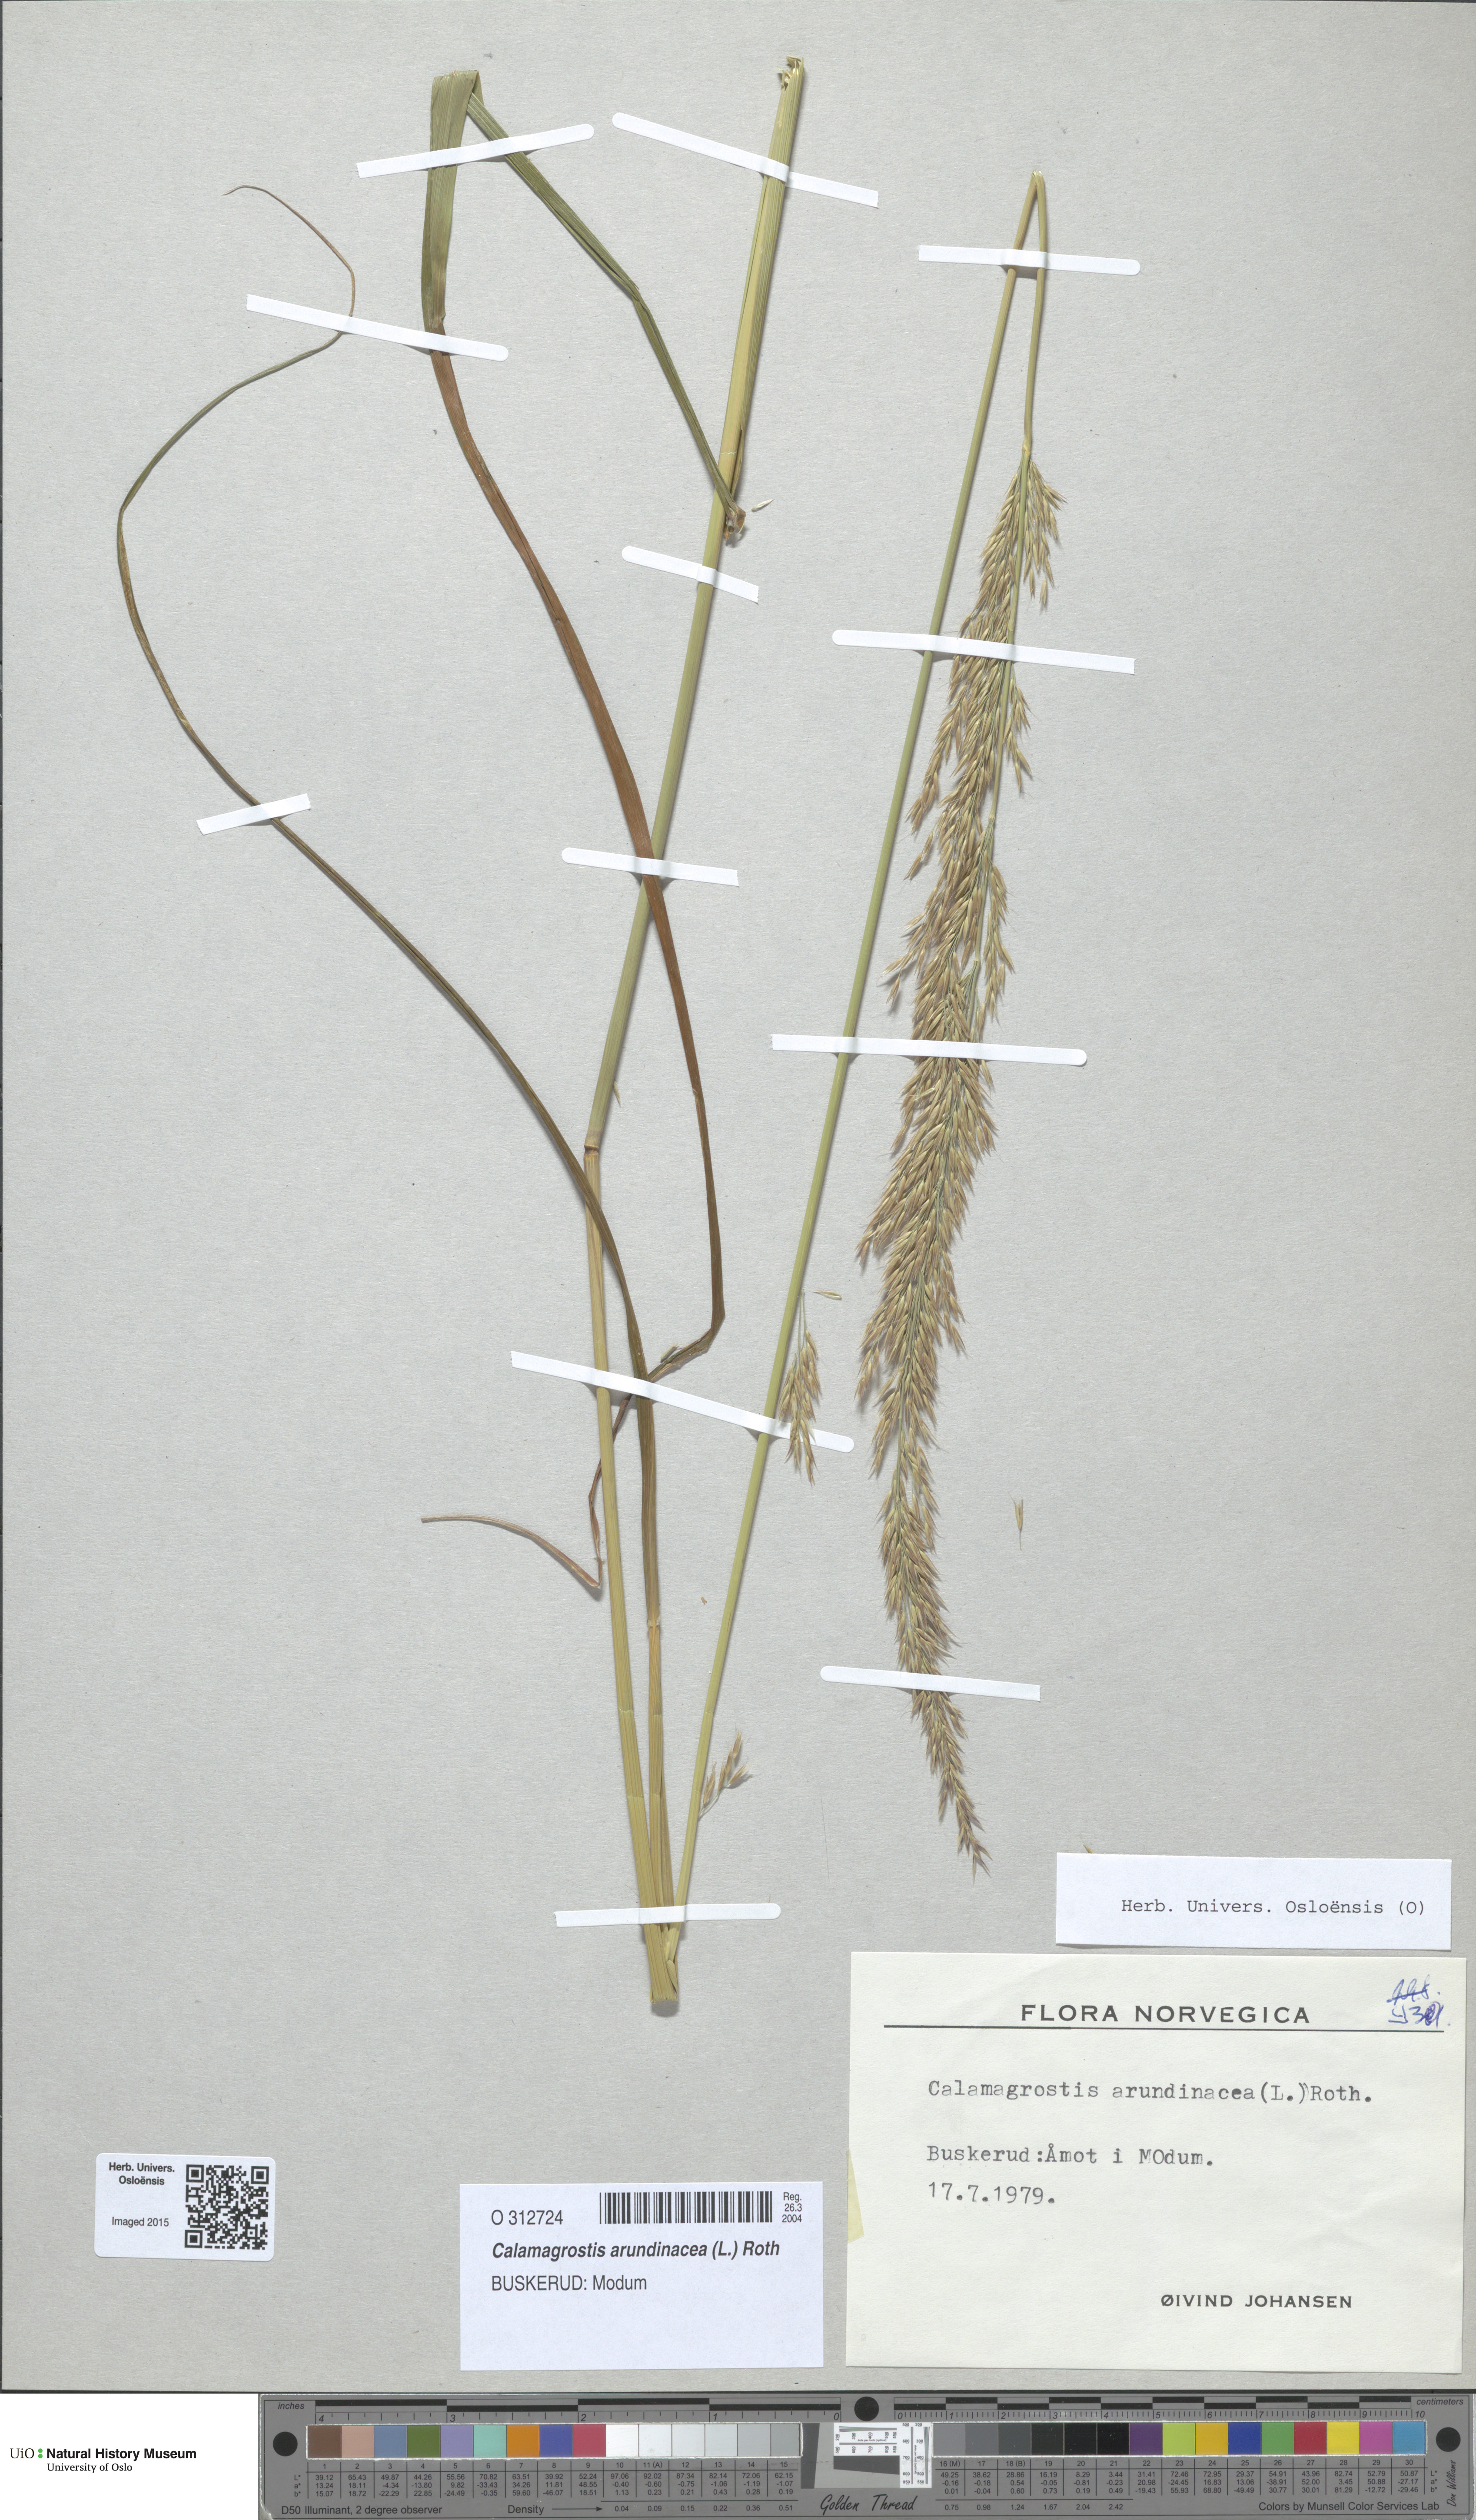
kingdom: Plantae
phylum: Tracheophyta
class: Liliopsida
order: Poales
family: Poaceae
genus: Calamagrostis
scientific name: Calamagrostis arundinacea
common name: Metskastik
